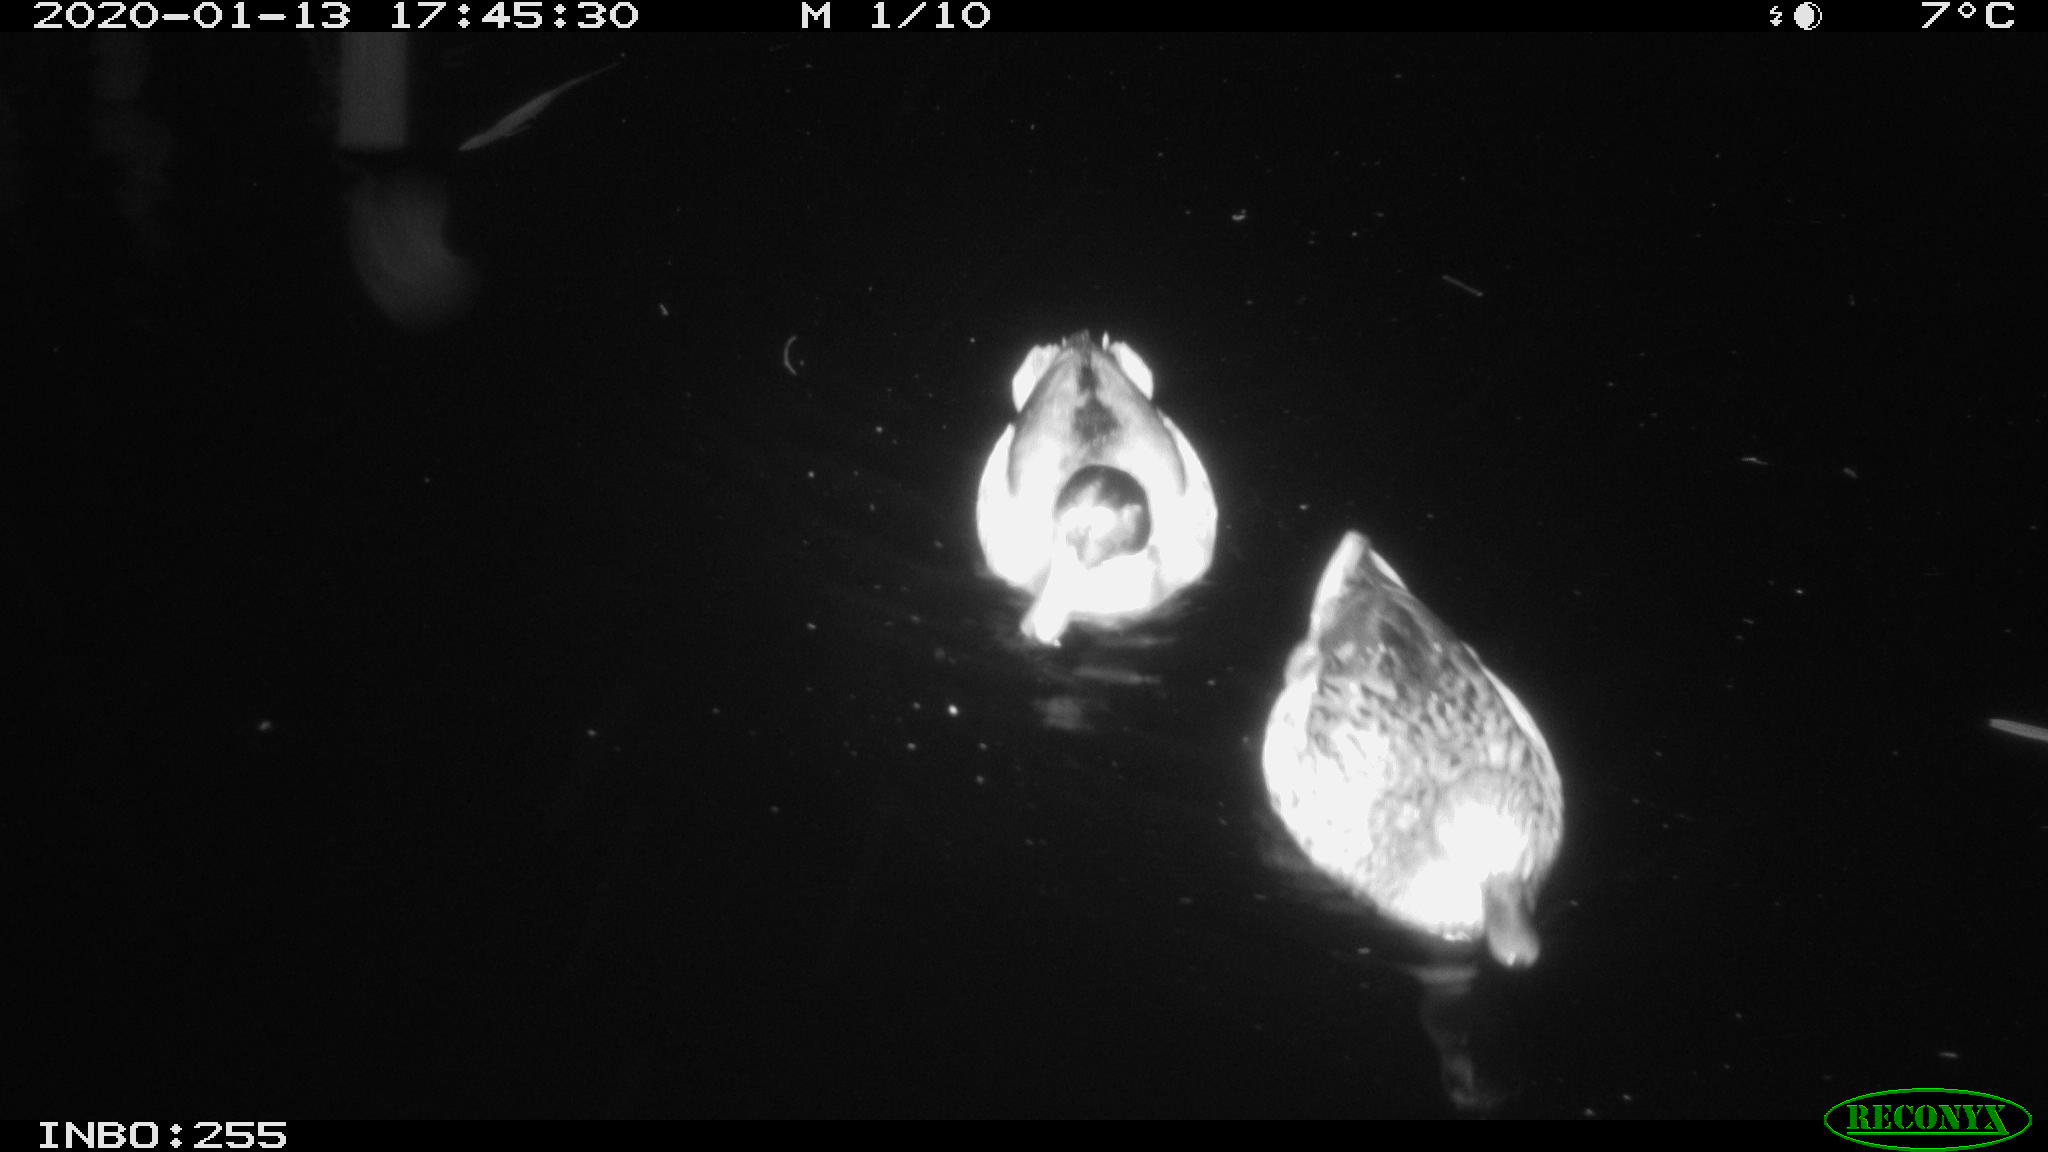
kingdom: Animalia
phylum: Chordata
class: Aves
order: Anseriformes
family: Anatidae
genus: Anas
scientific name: Anas platyrhynchos
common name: Mallard
